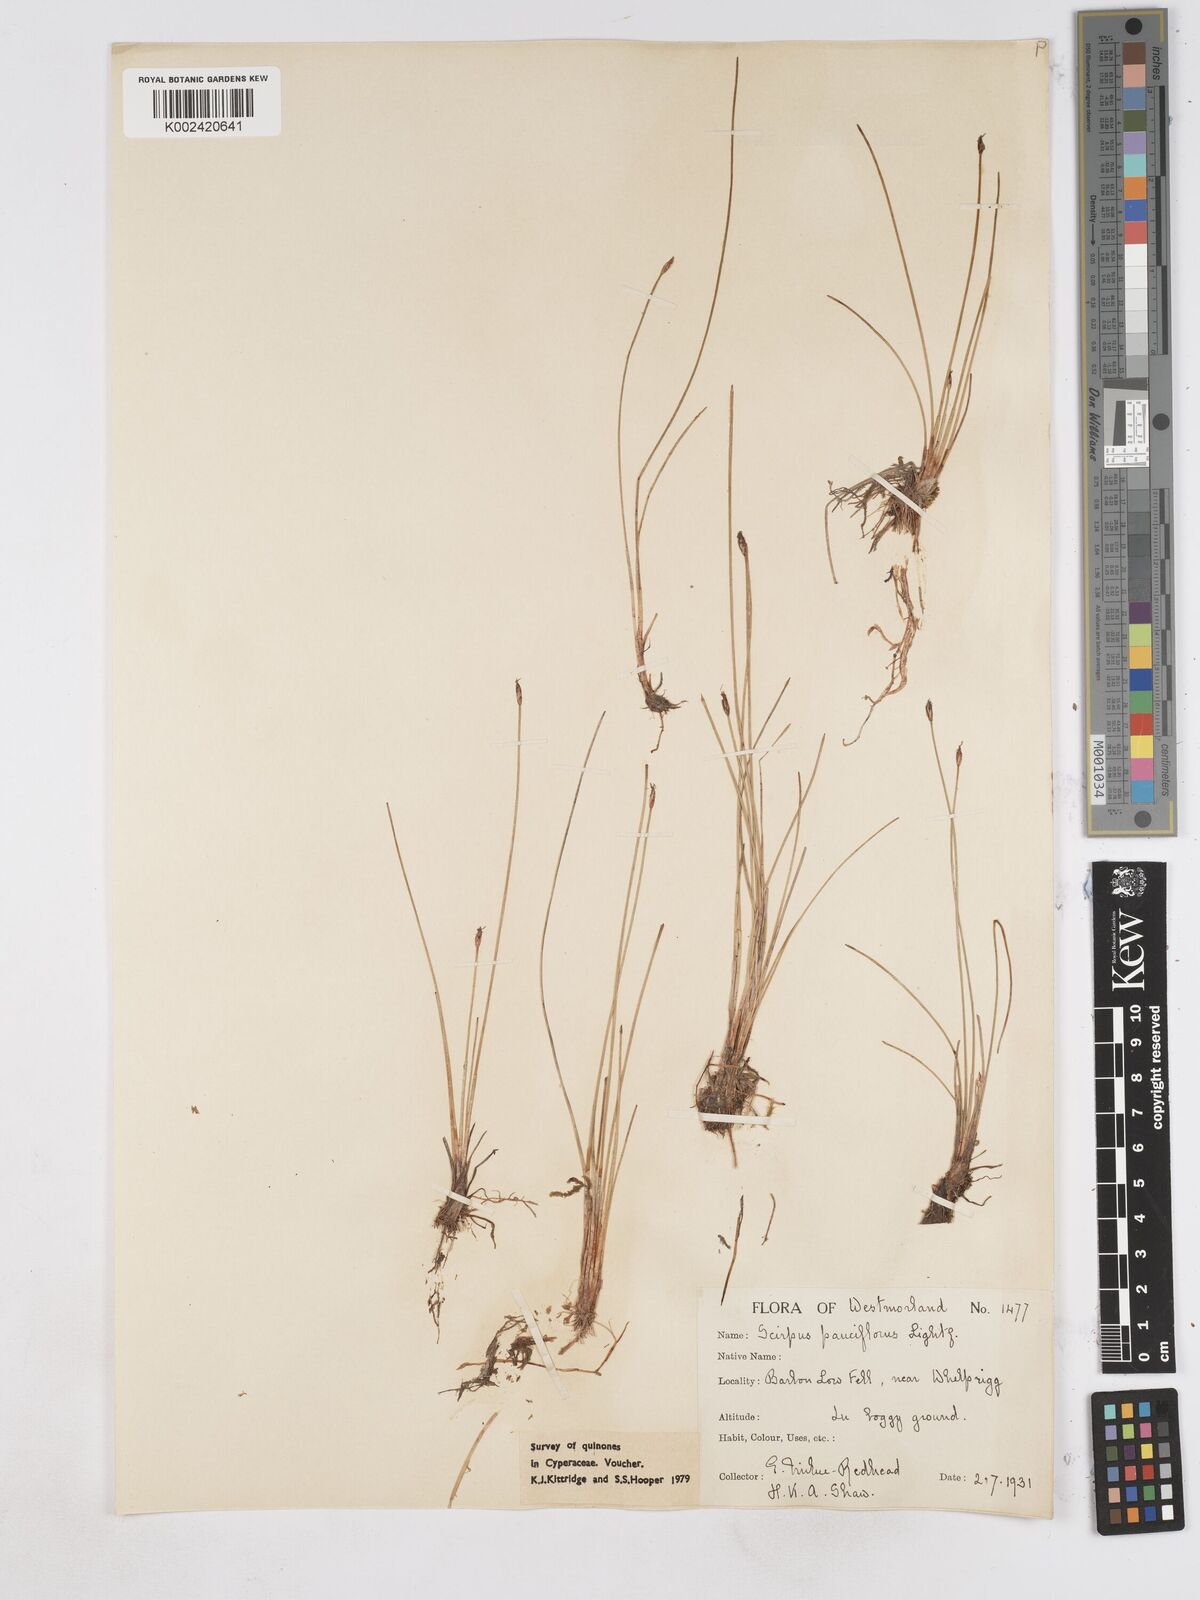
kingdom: Plantae
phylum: Tracheophyta
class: Liliopsida
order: Poales
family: Cyperaceae
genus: Eleocharis
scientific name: Eleocharis quinqueflora
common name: Few-flowered spike-rush
